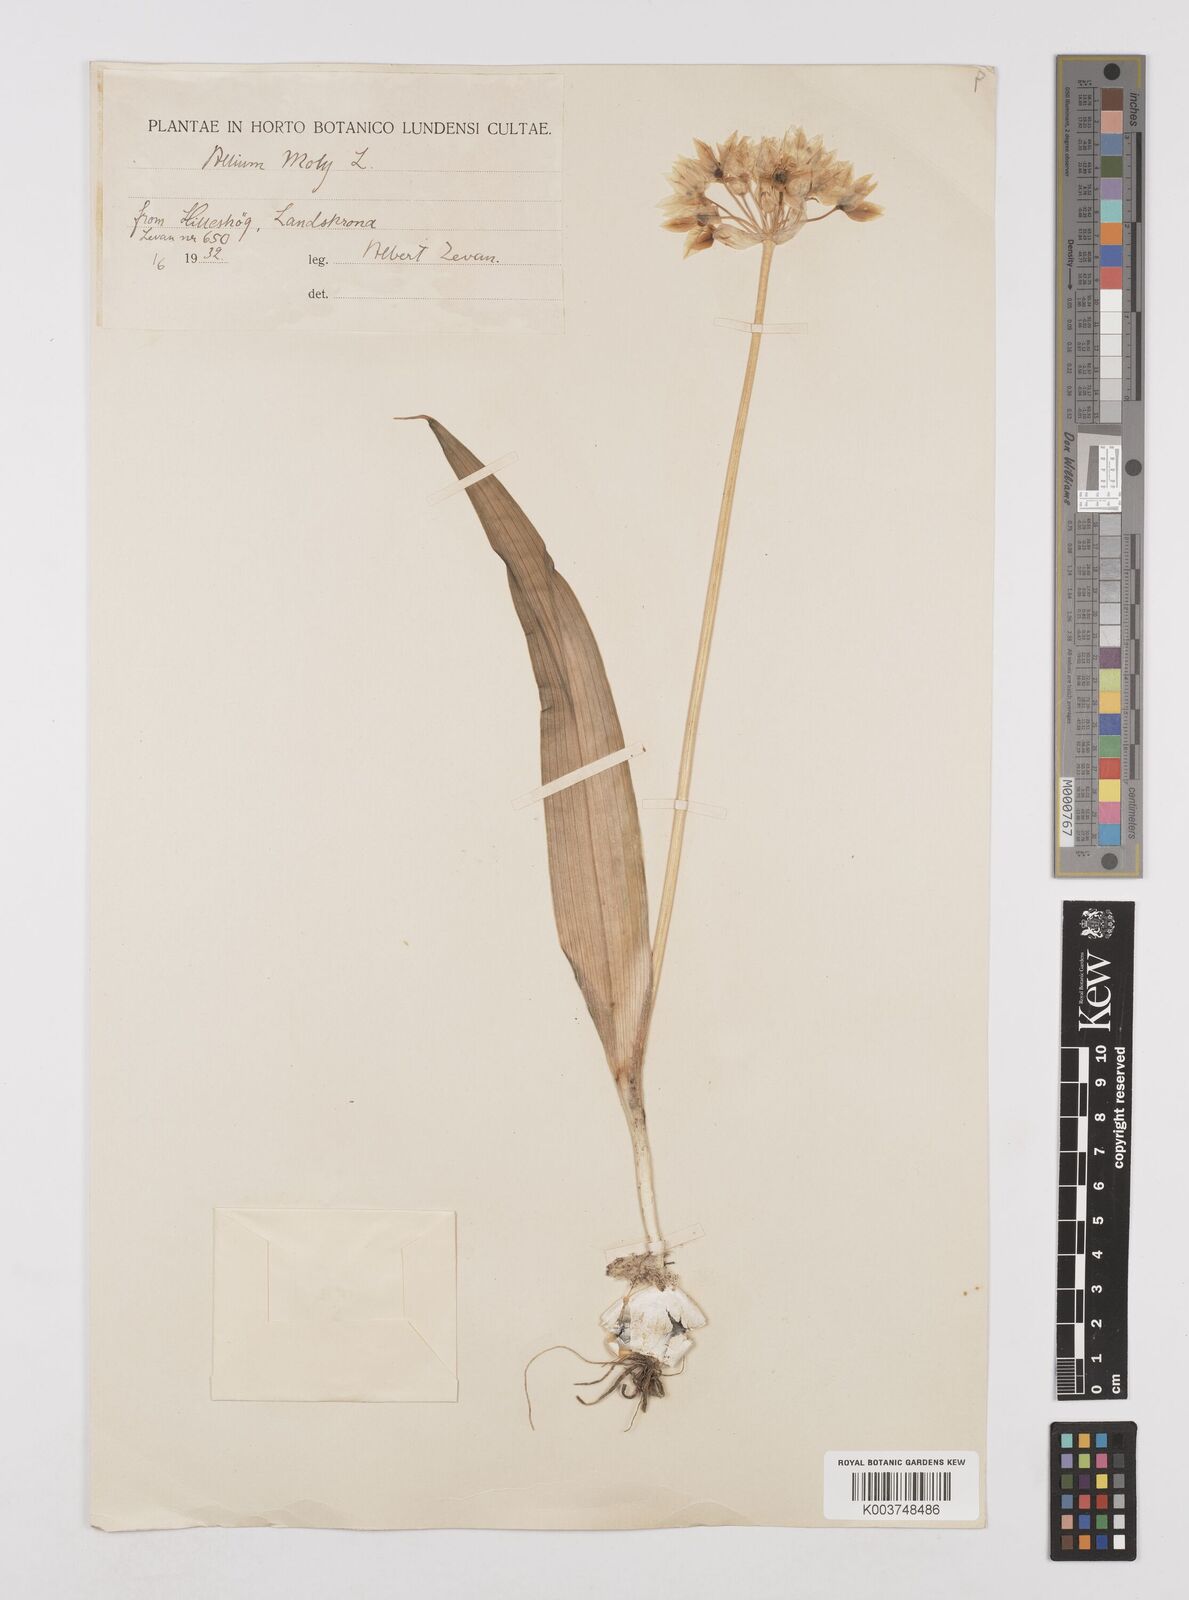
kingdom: Plantae
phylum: Tracheophyta
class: Liliopsida
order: Asparagales
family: Amaryllidaceae
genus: Allium
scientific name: Allium moly
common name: Yellow garlic
